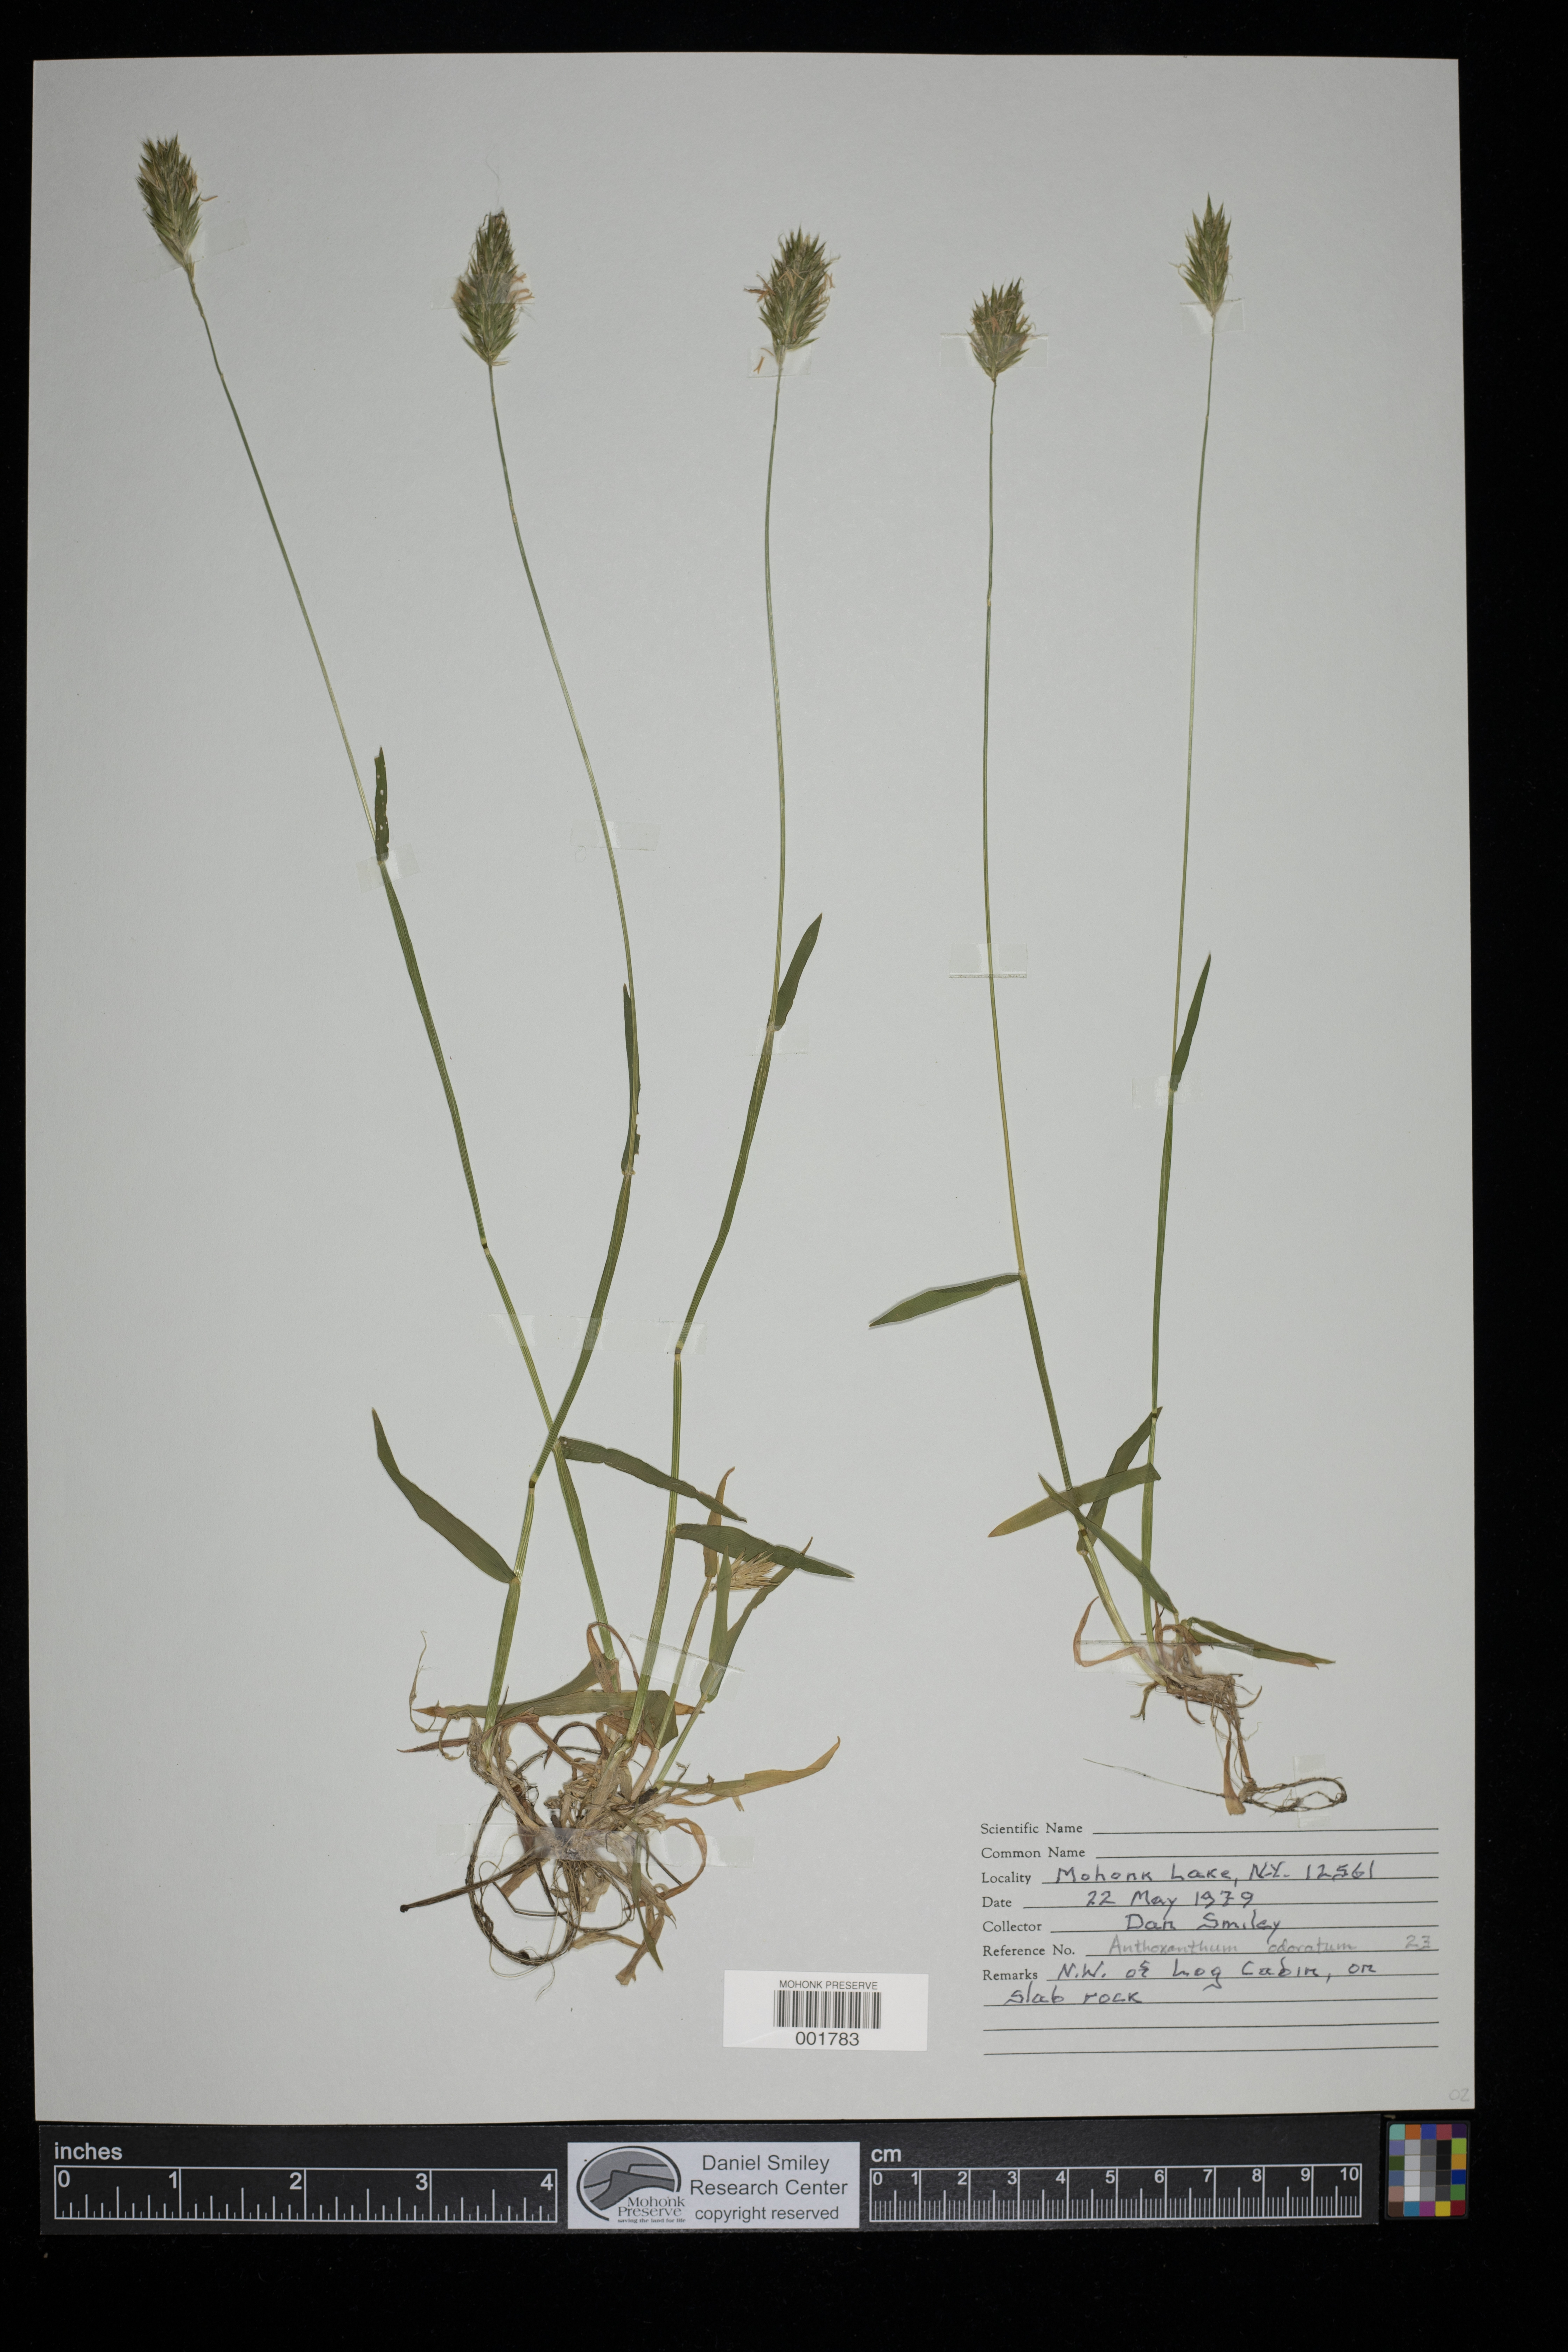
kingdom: Plantae
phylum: Tracheophyta
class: Liliopsida
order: Poales
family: Poaceae
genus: Anthoxanthum
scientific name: Anthoxanthum odoratum
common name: Sweet vernalgrass
